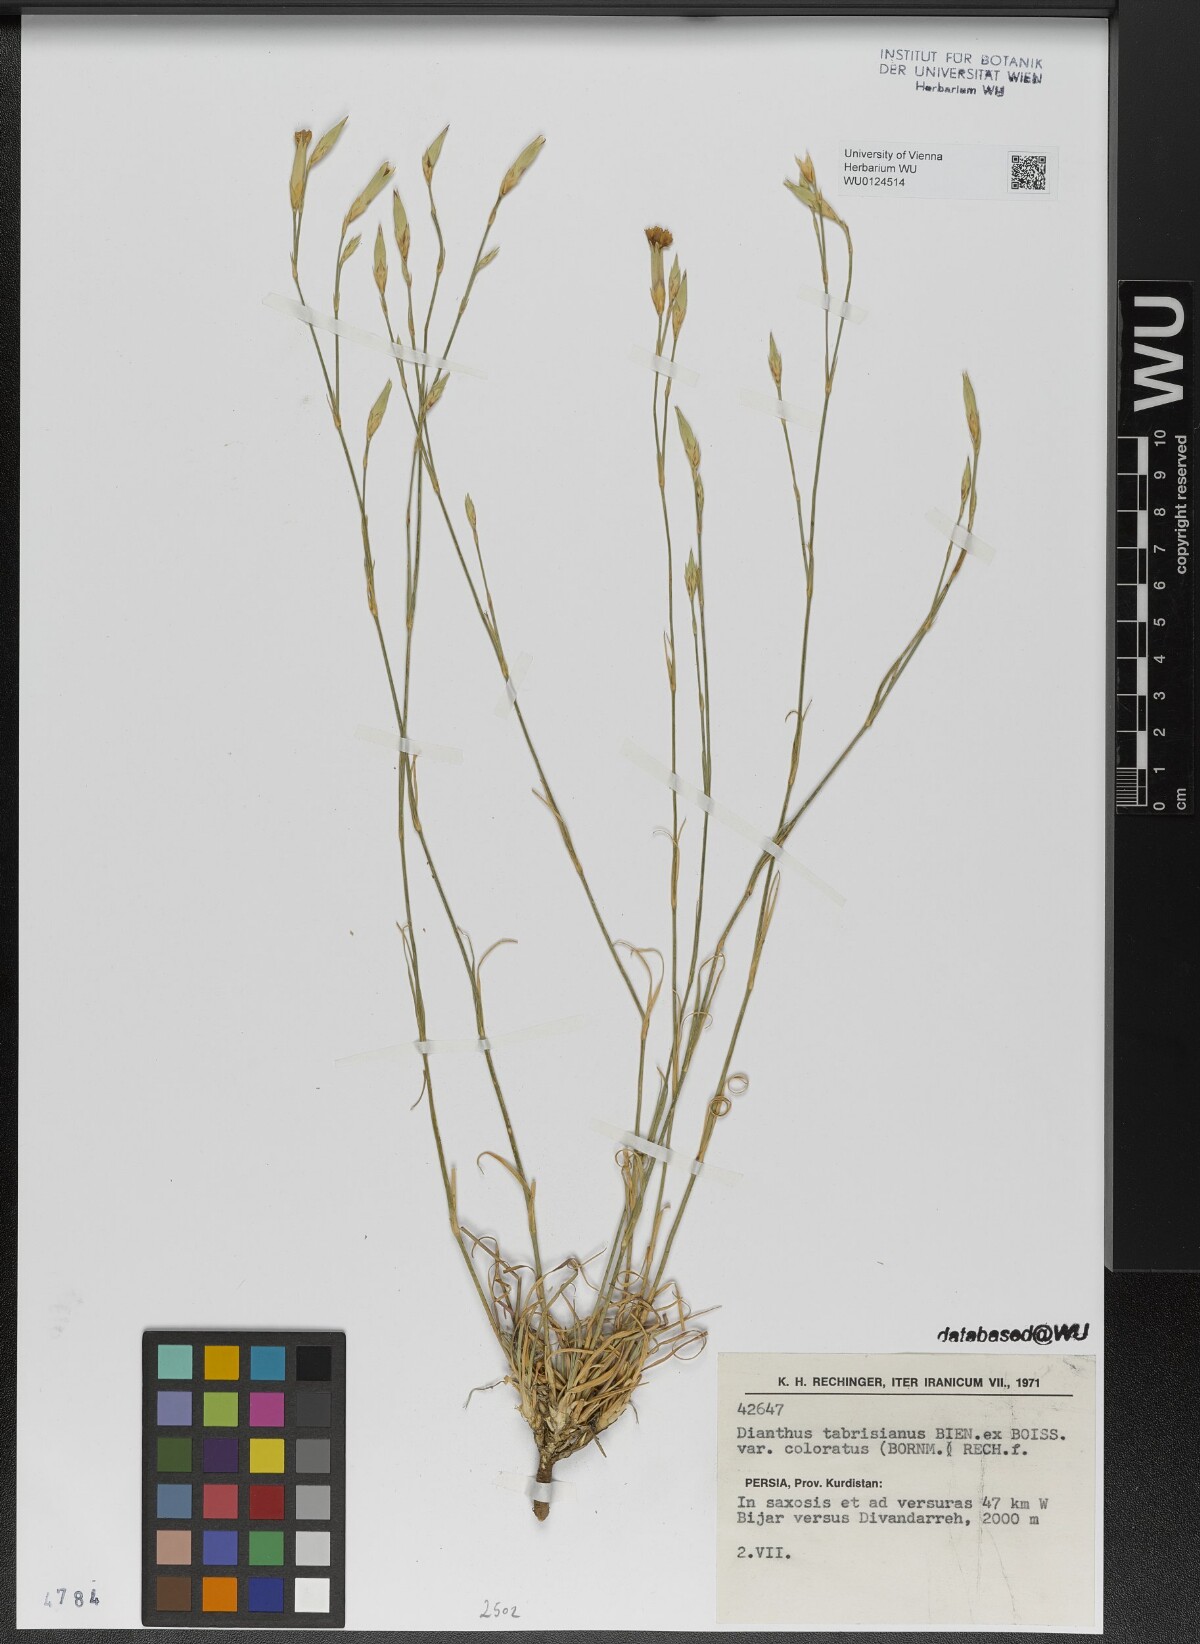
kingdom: Plantae
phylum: Tracheophyta
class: Magnoliopsida
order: Caryophyllales
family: Caryophyllaceae
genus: Dianthus
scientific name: Dianthus tabrisianus
